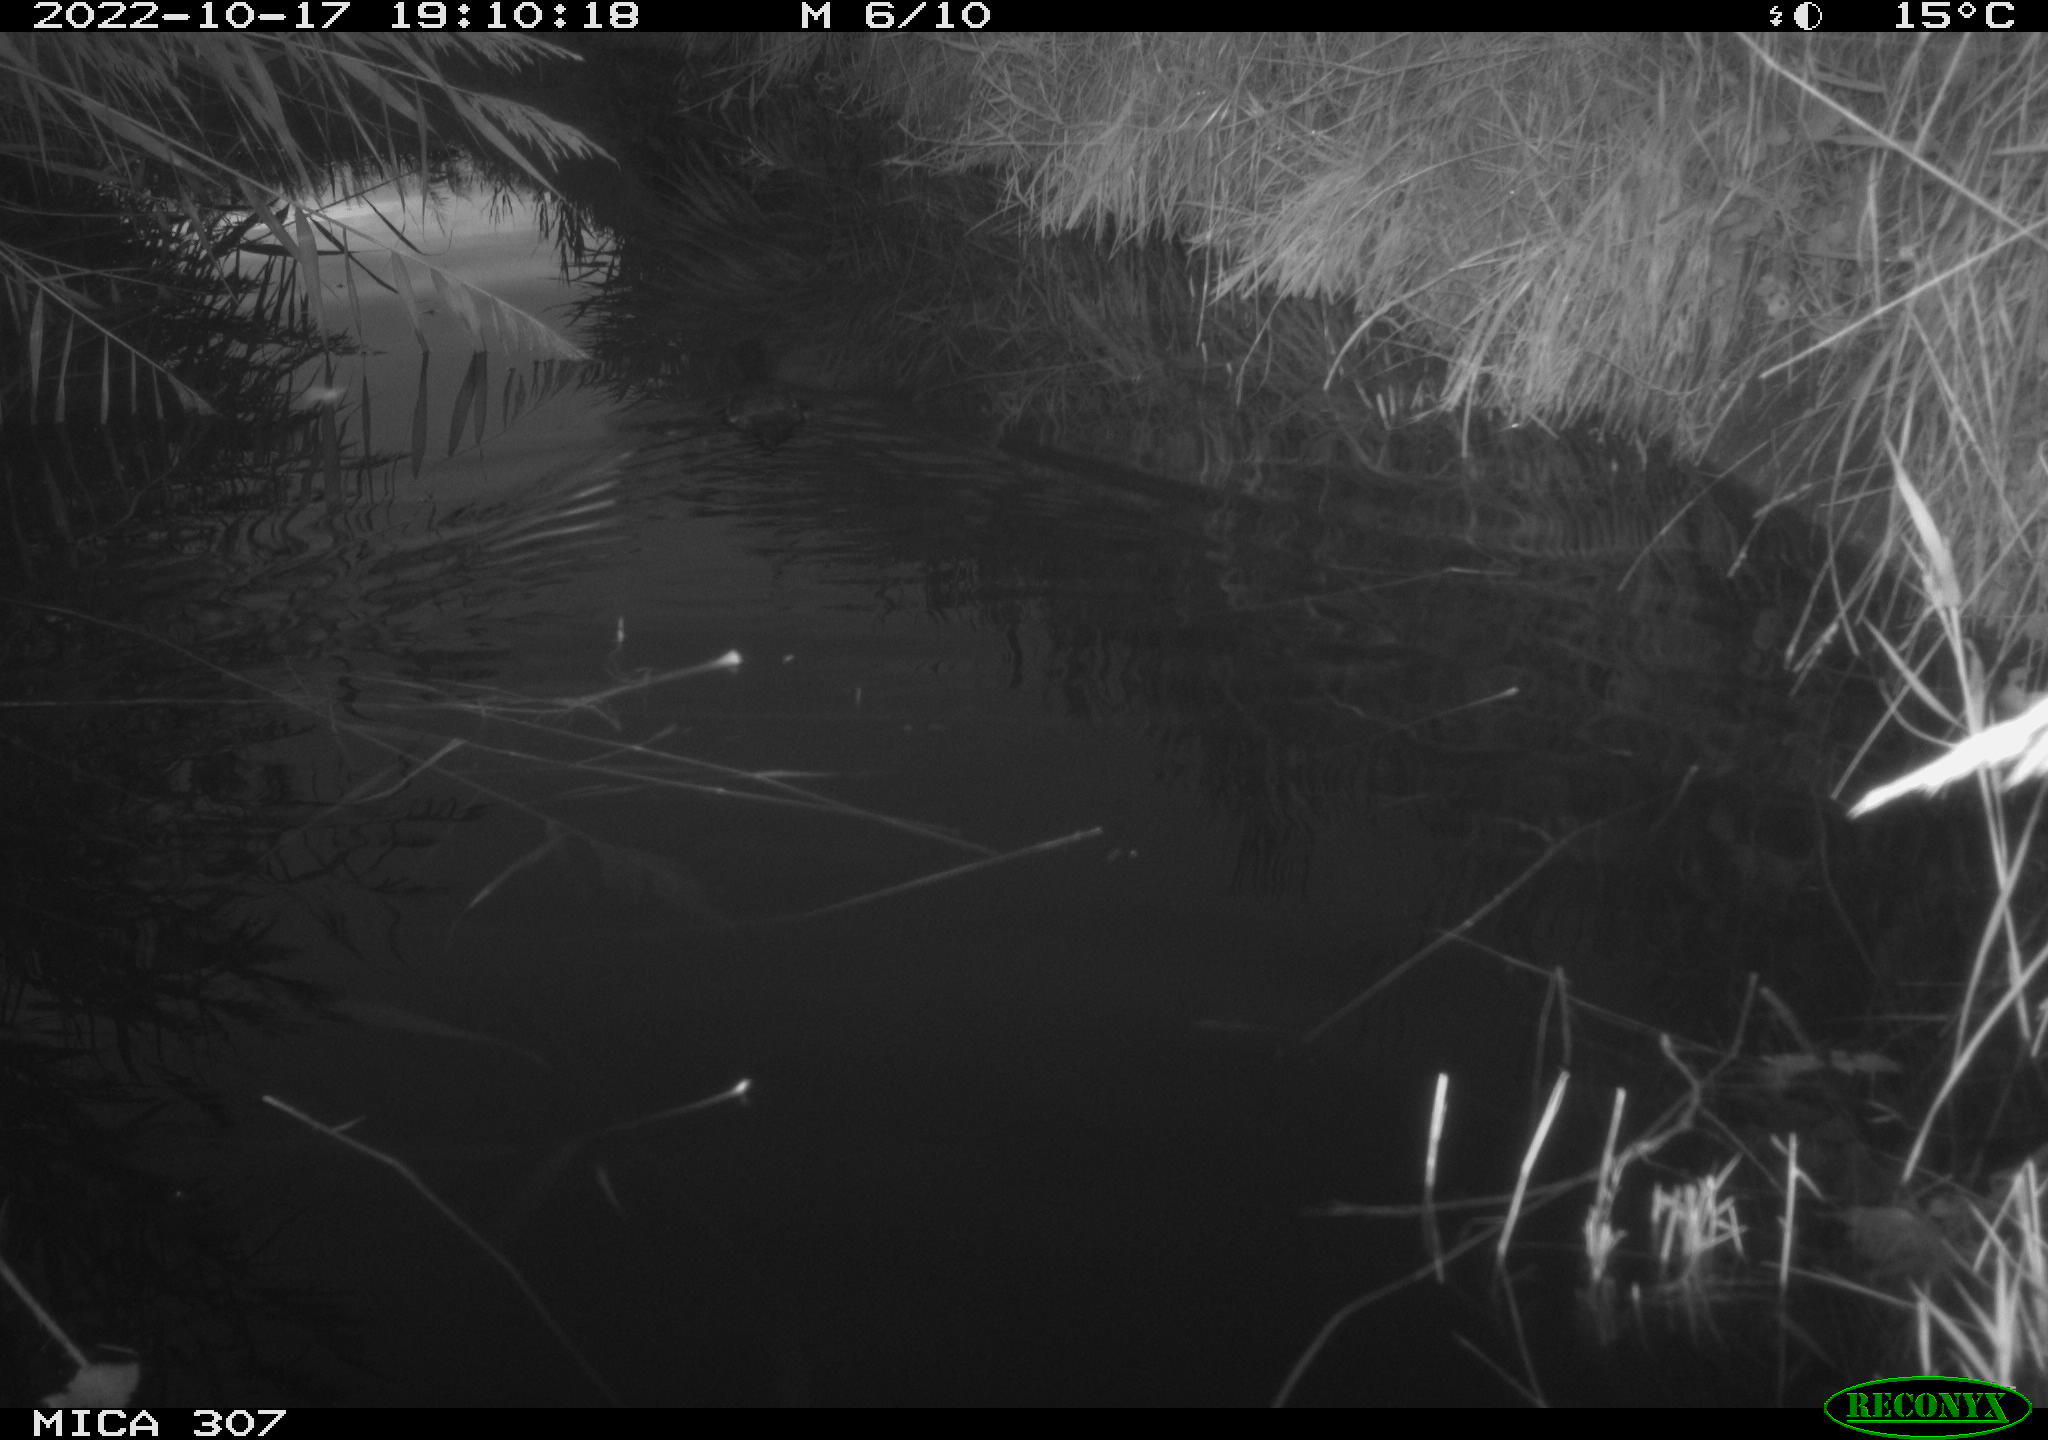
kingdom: Animalia
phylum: Chordata
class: Aves
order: Gruiformes
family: Rallidae
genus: Fulica
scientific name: Fulica atra
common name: Eurasian coot
